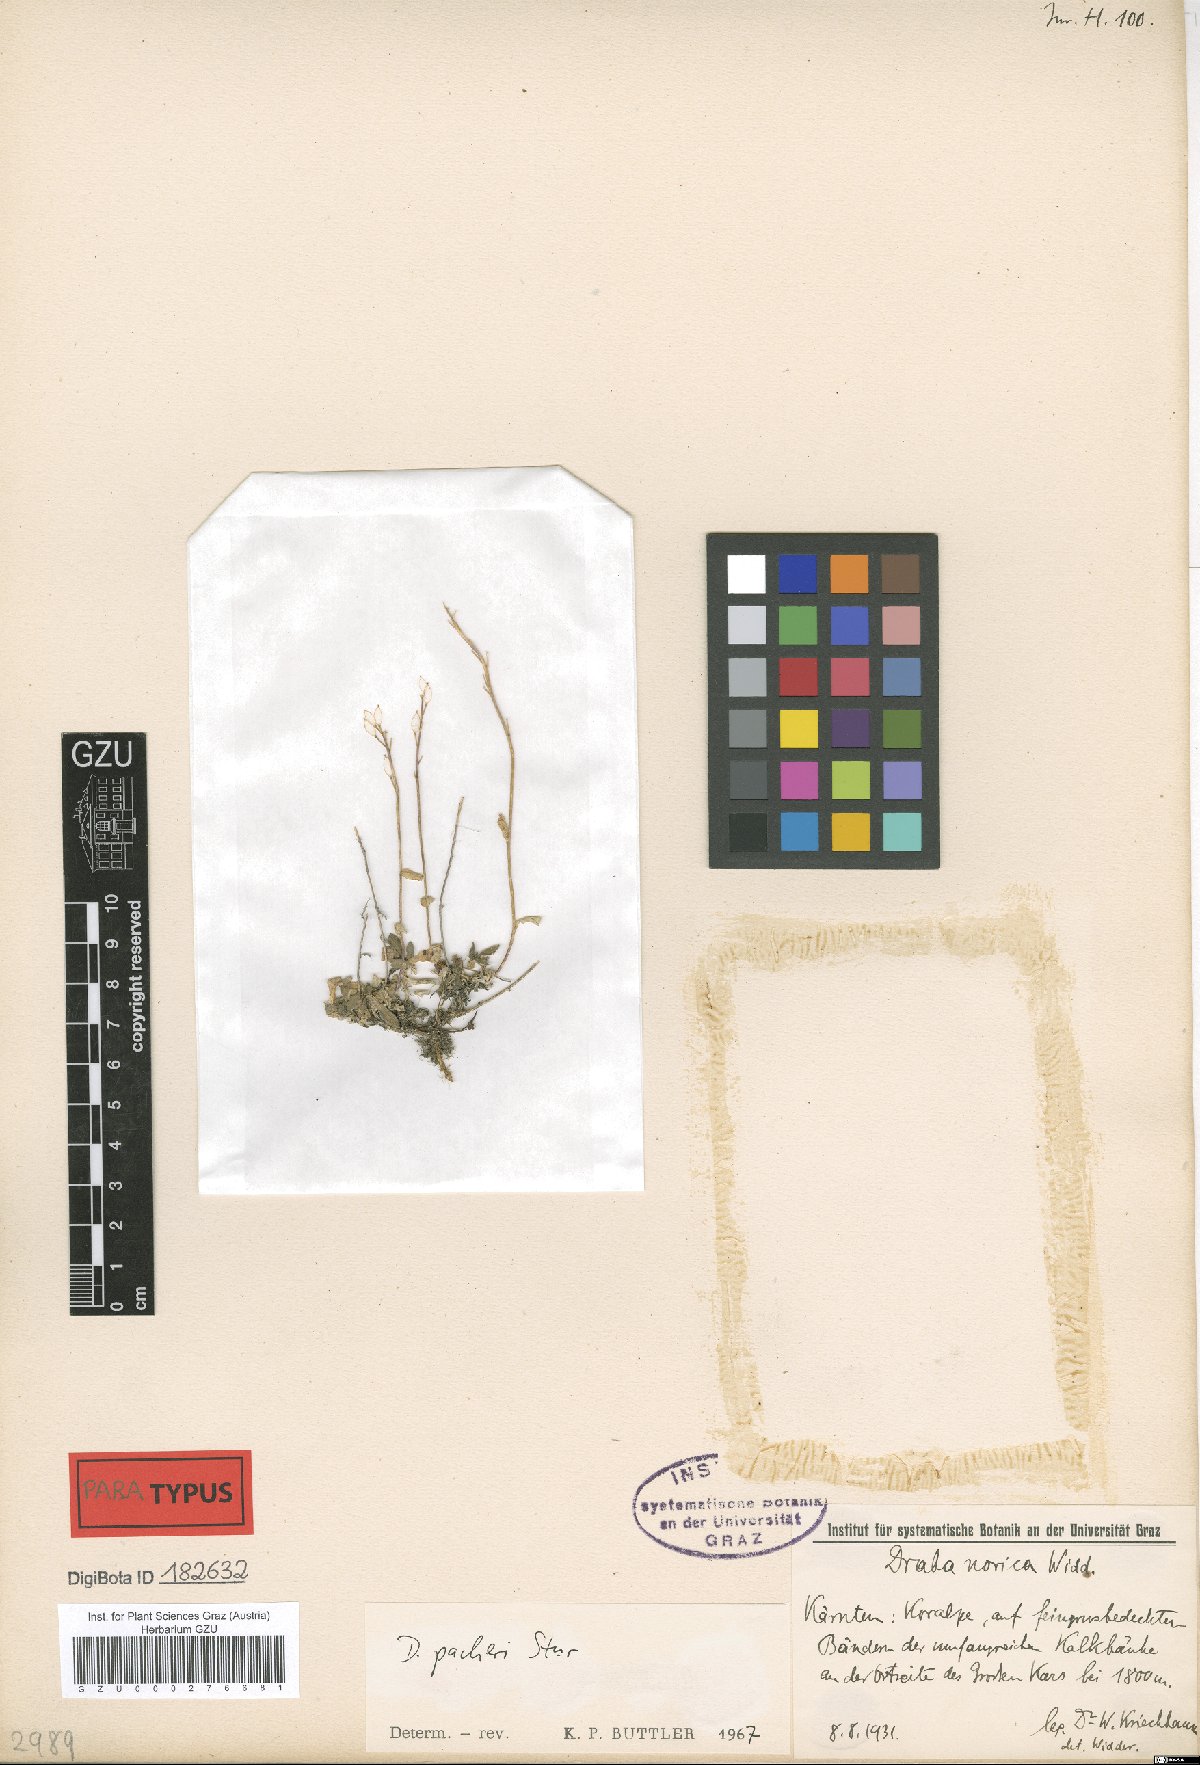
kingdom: Plantae
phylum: Tracheophyta
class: Magnoliopsida
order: Brassicales
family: Brassicaceae
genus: Draba
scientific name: Draba pacheri
